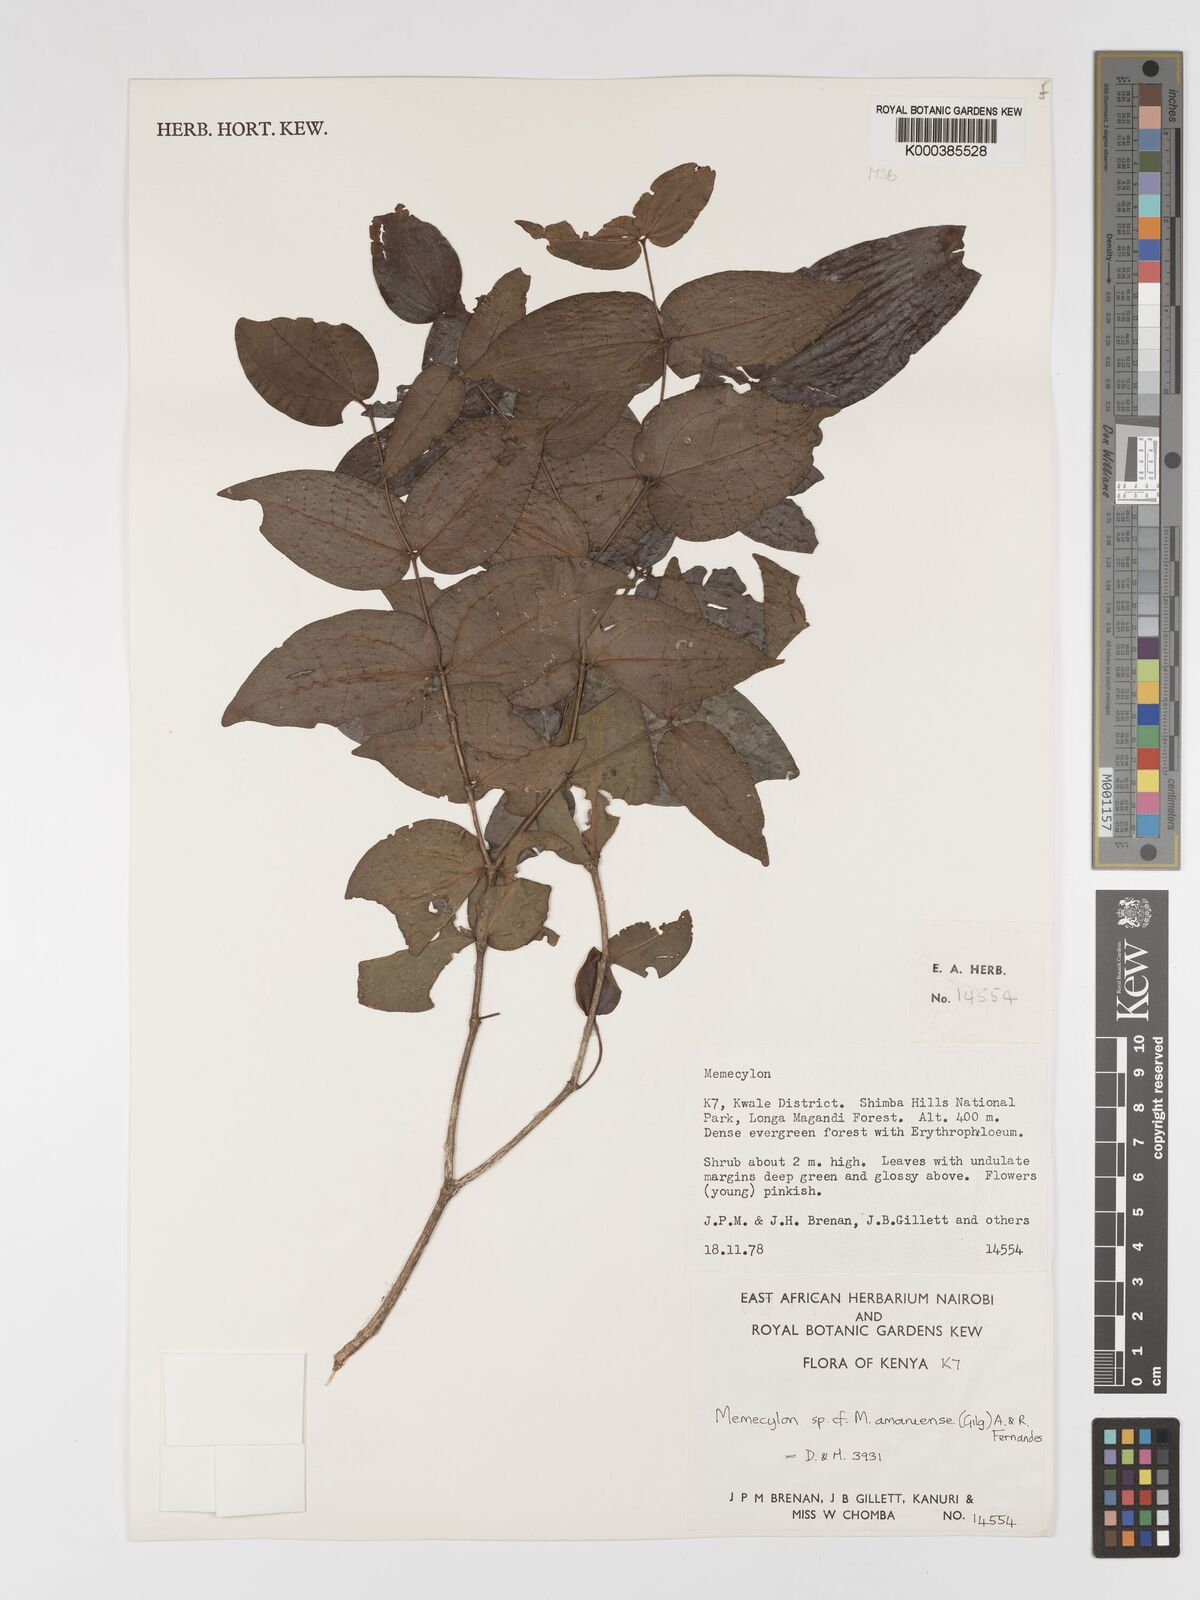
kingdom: Plantae
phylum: Tracheophyta
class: Magnoliopsida
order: Myrtales
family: Melastomataceae
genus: Warneckea
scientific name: Warneckea amaniensis
